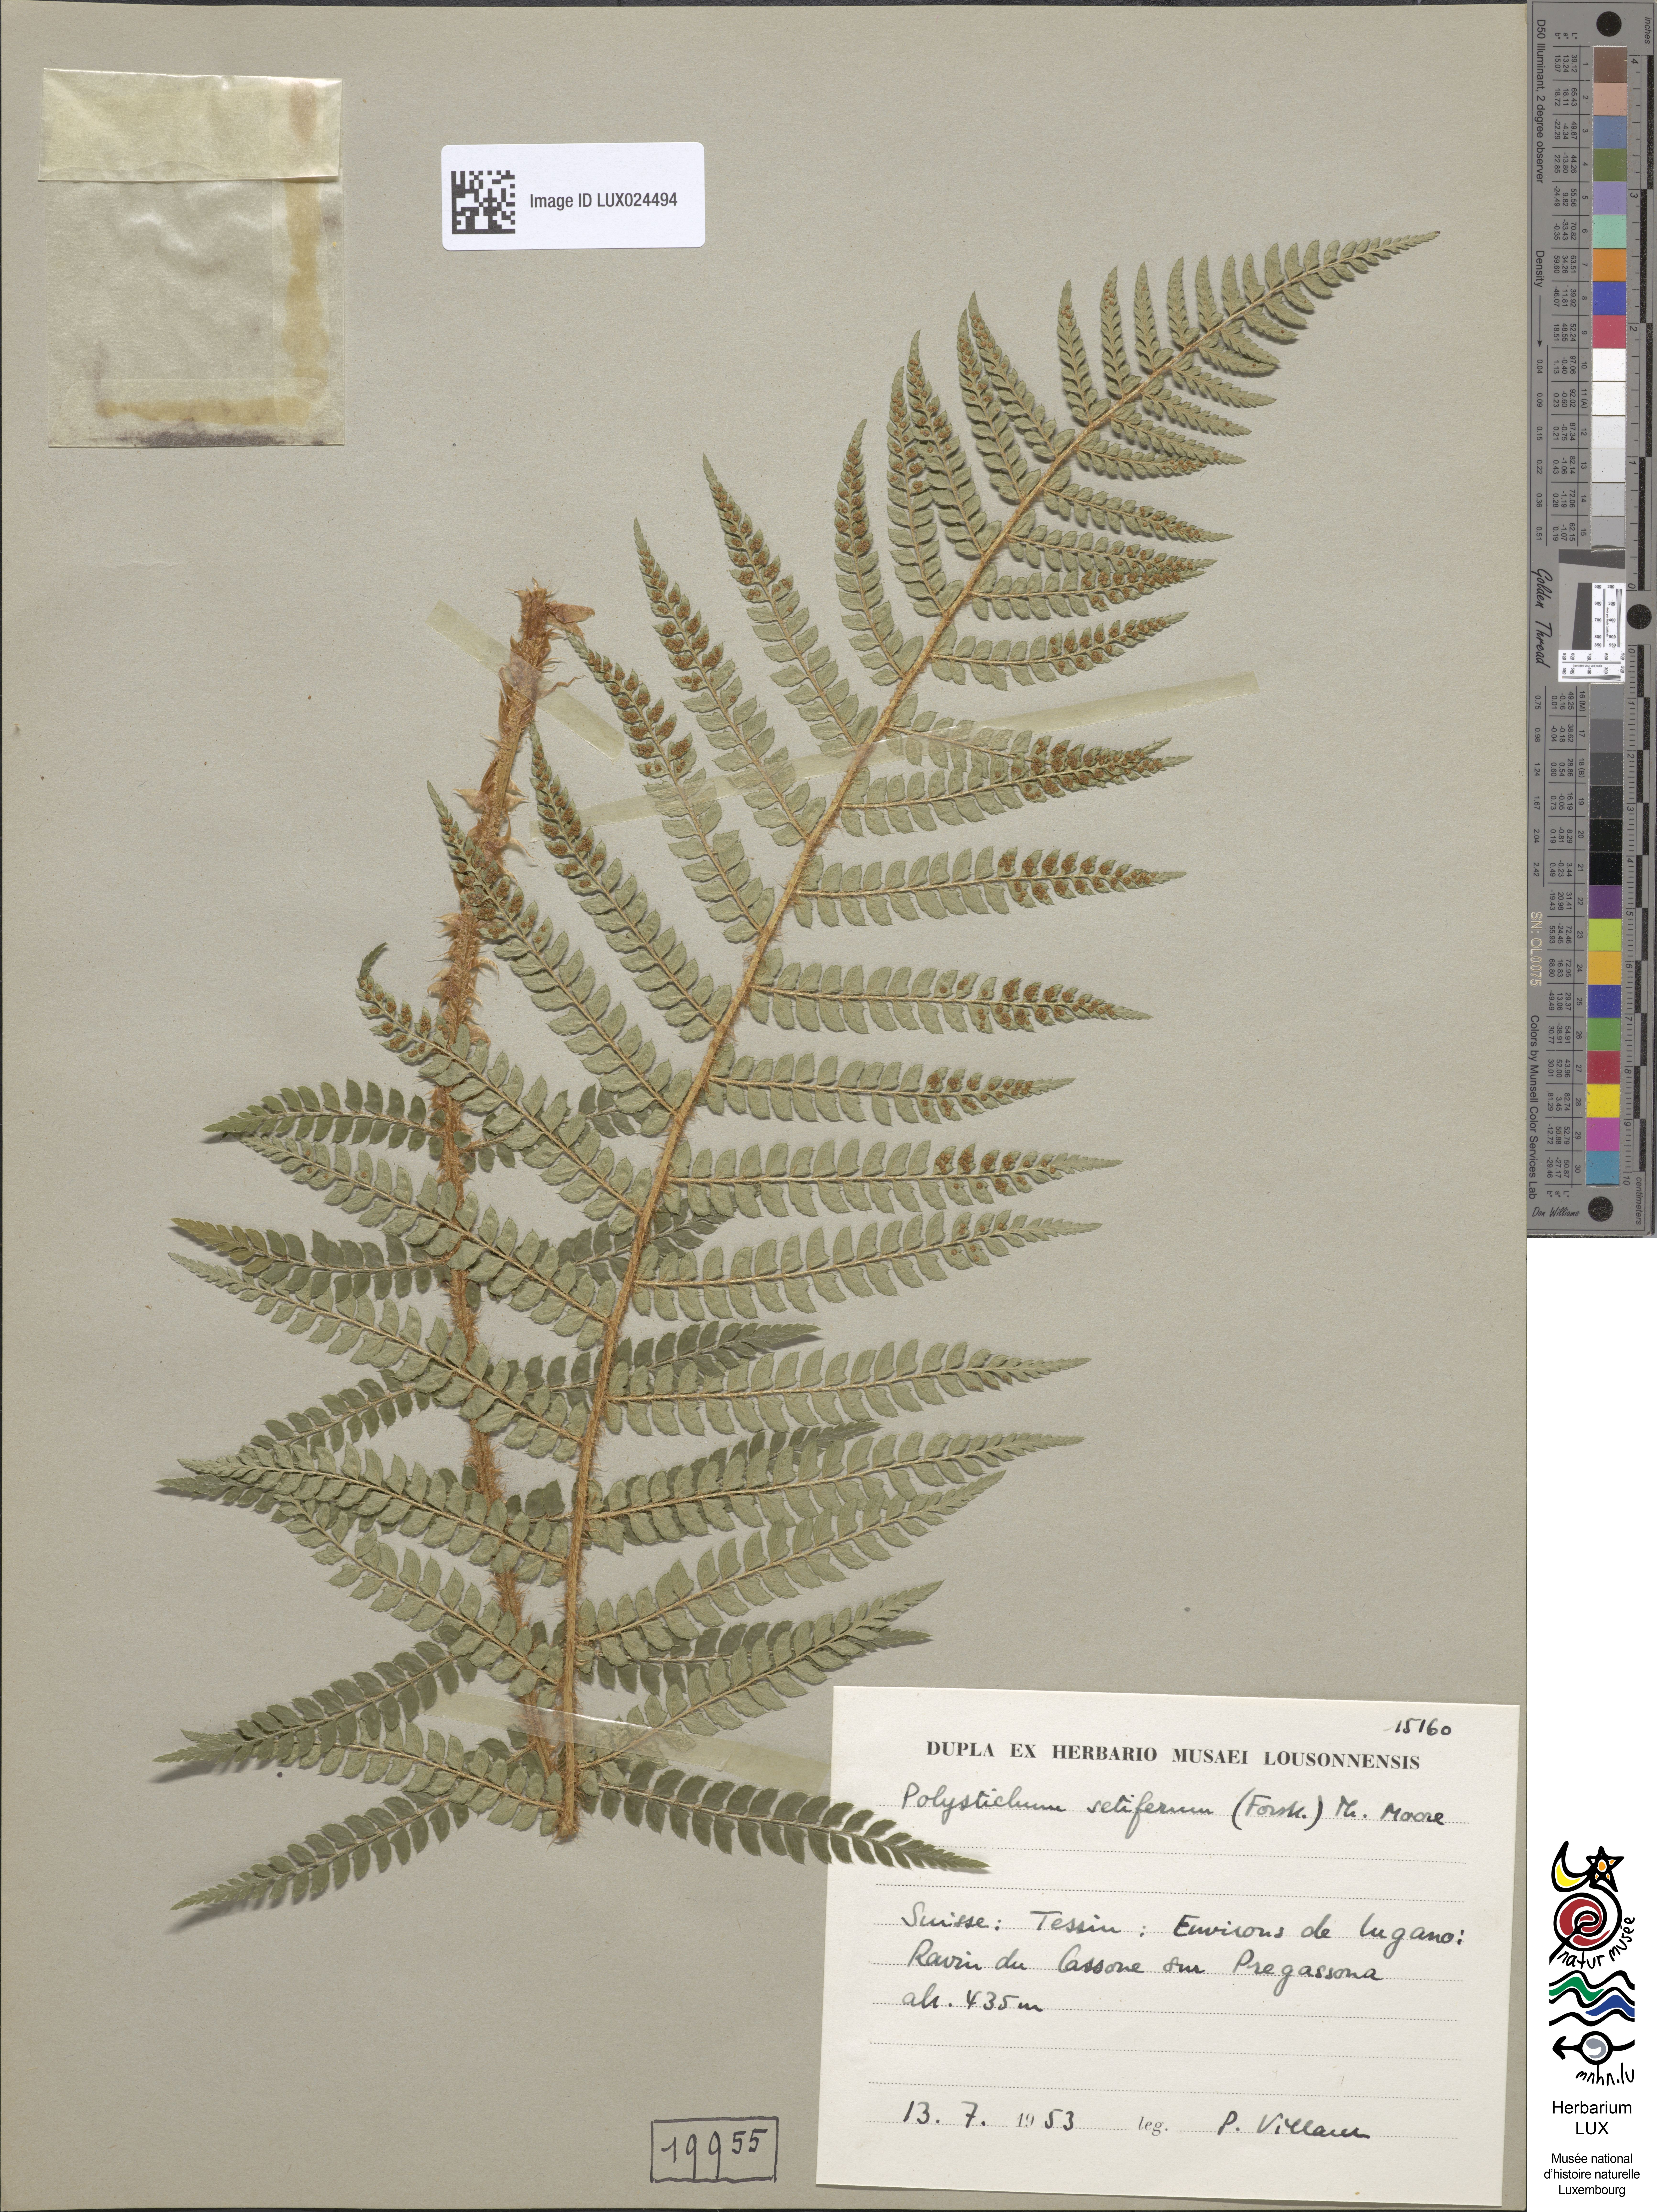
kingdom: Plantae
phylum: Tracheophyta
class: Polypodiopsida
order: Polypodiales
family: Dryopteridaceae
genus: Polystichum
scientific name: Polystichum setiferum
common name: Soft shield-fern
